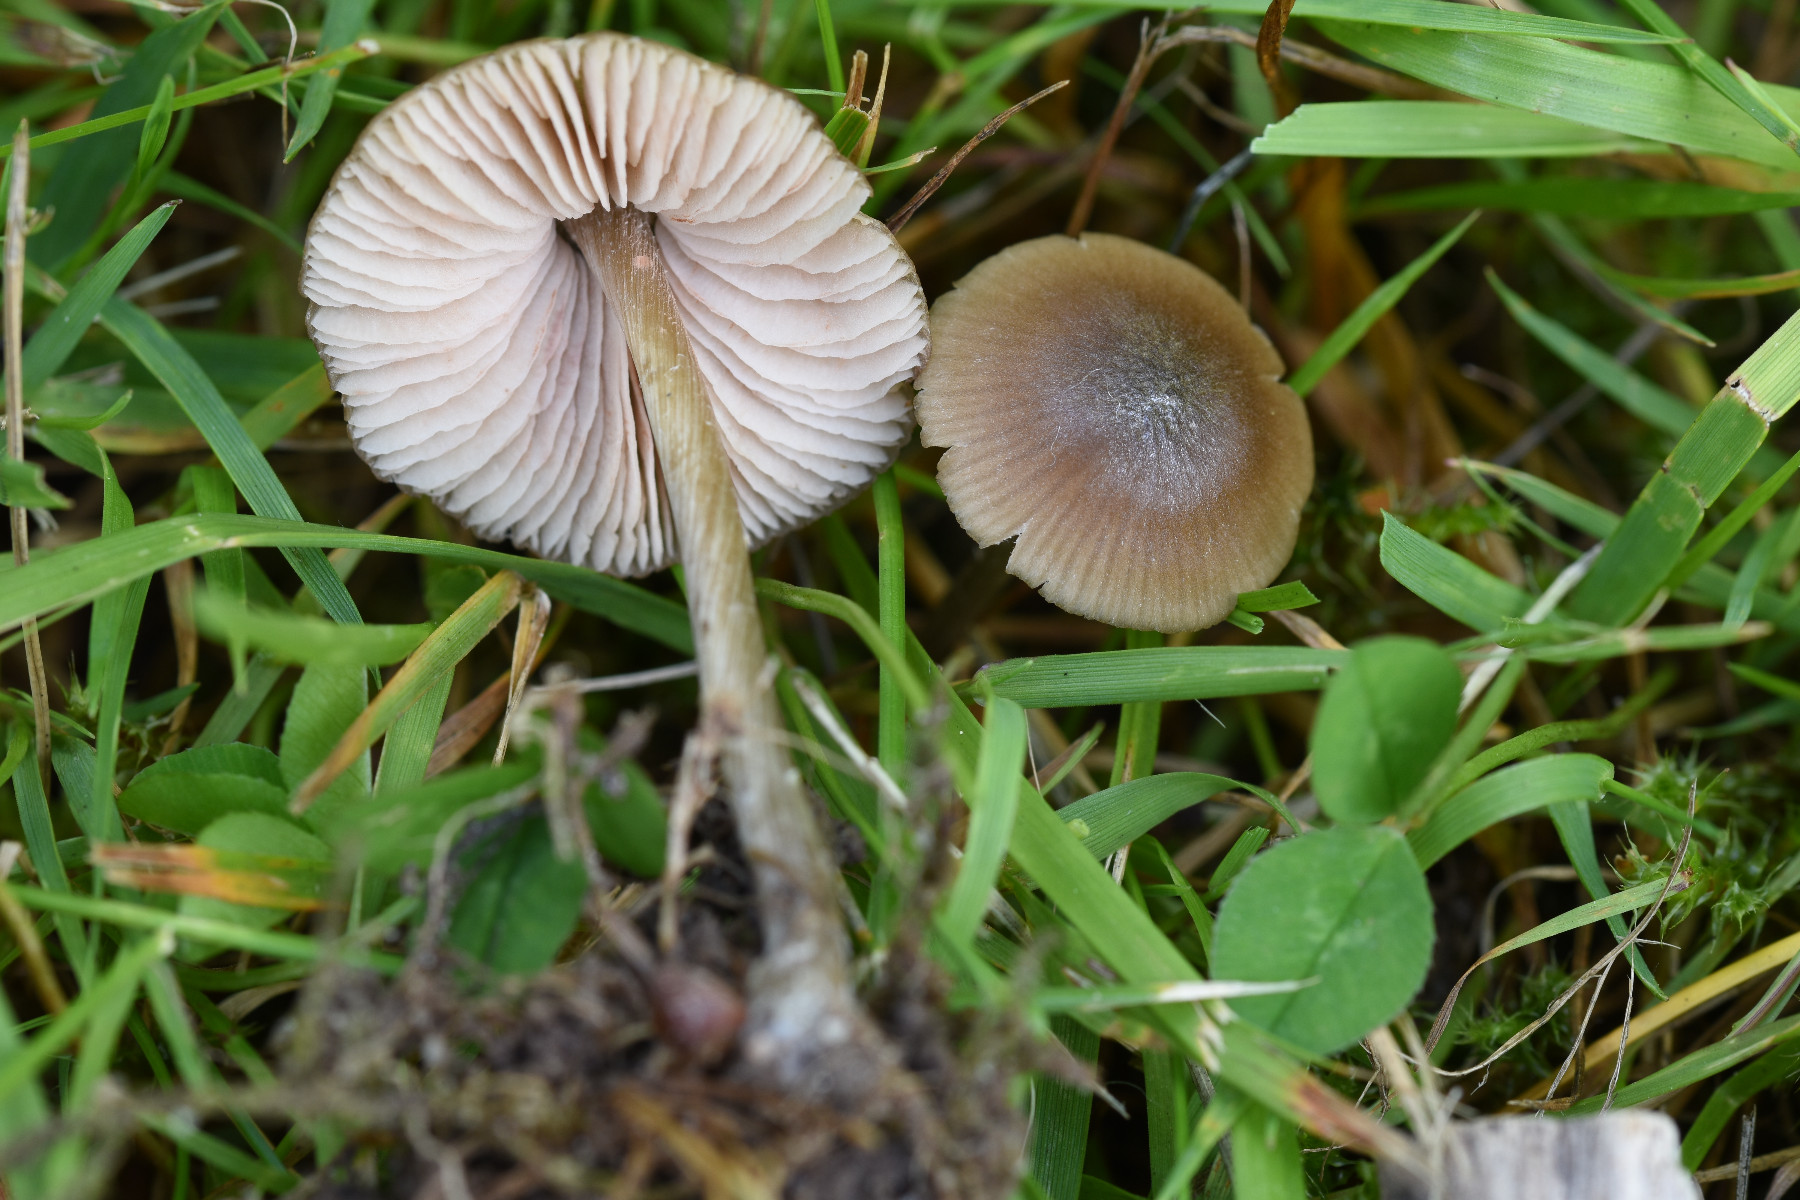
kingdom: Fungi
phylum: Basidiomycota
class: Agaricomycetes
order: Agaricales
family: Entolomataceae
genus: Entoloma
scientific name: Entoloma conferendum
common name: stjernesporet rødblad
